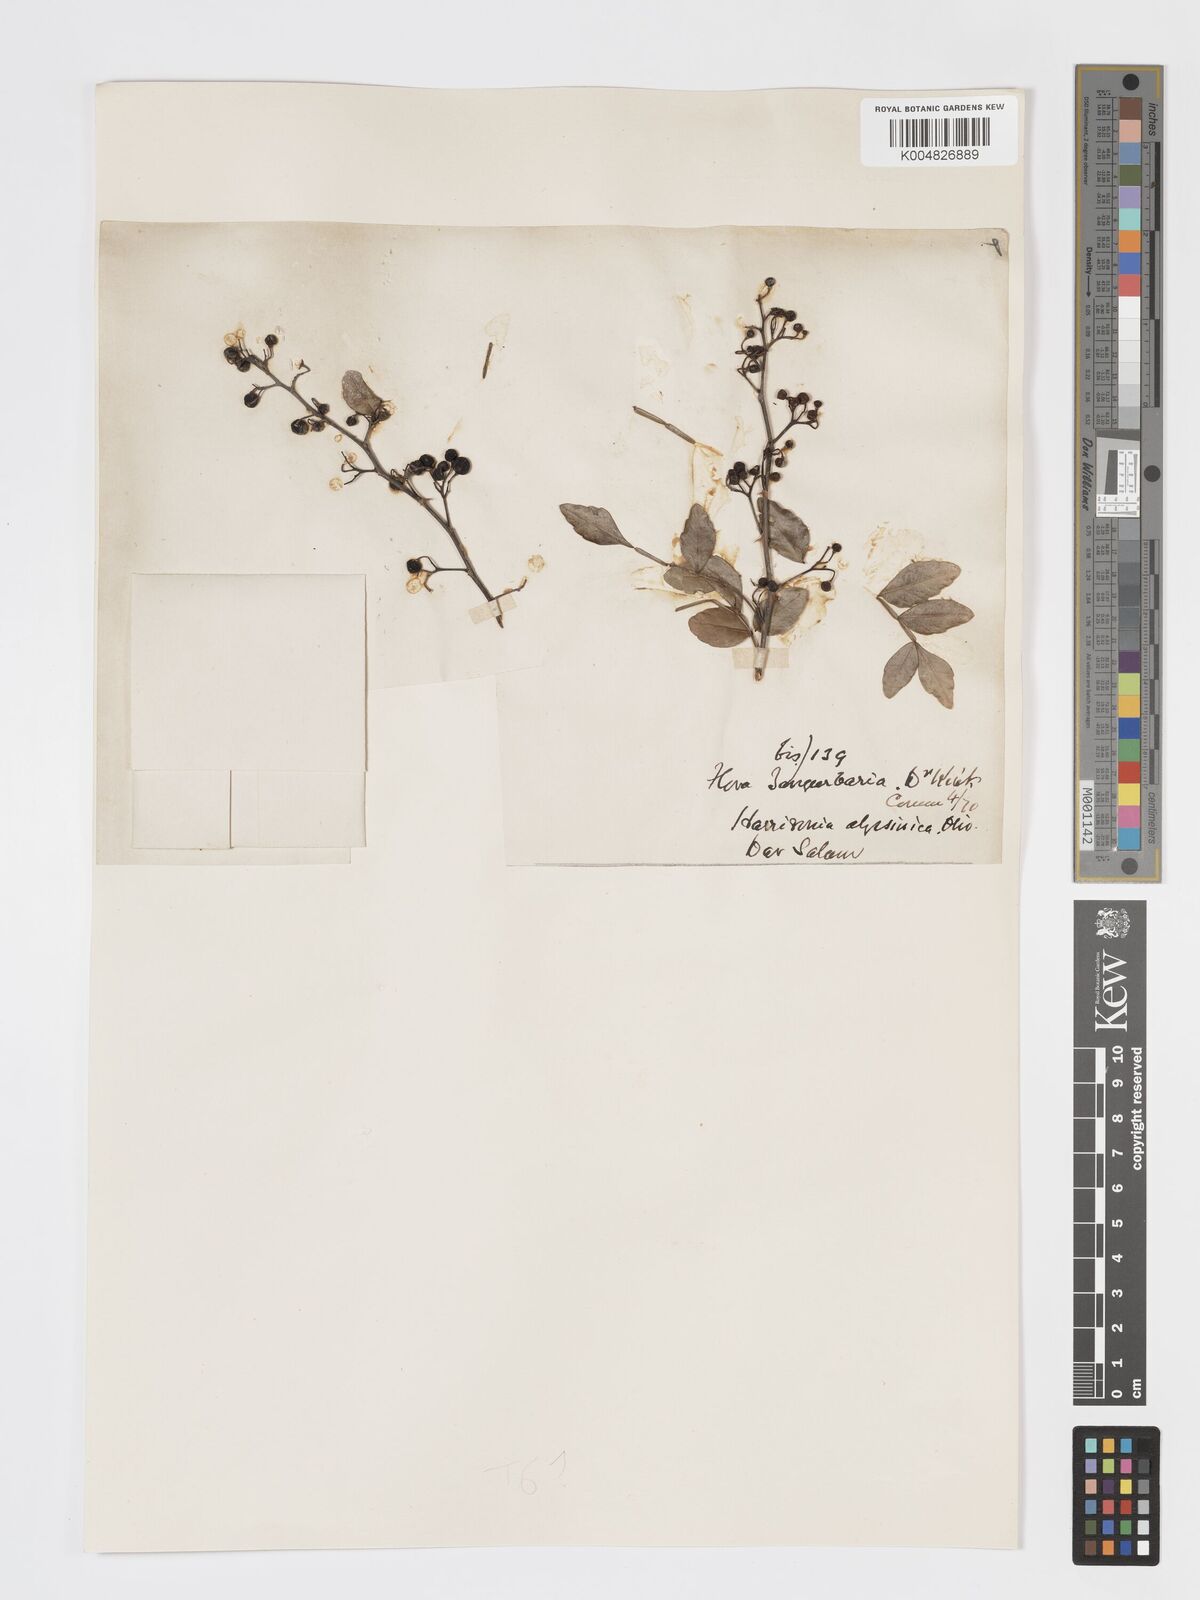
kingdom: Plantae
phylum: Tracheophyta
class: Magnoliopsida
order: Sapindales
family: Rutaceae
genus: Harrisonia
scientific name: Harrisonia abyssinica
